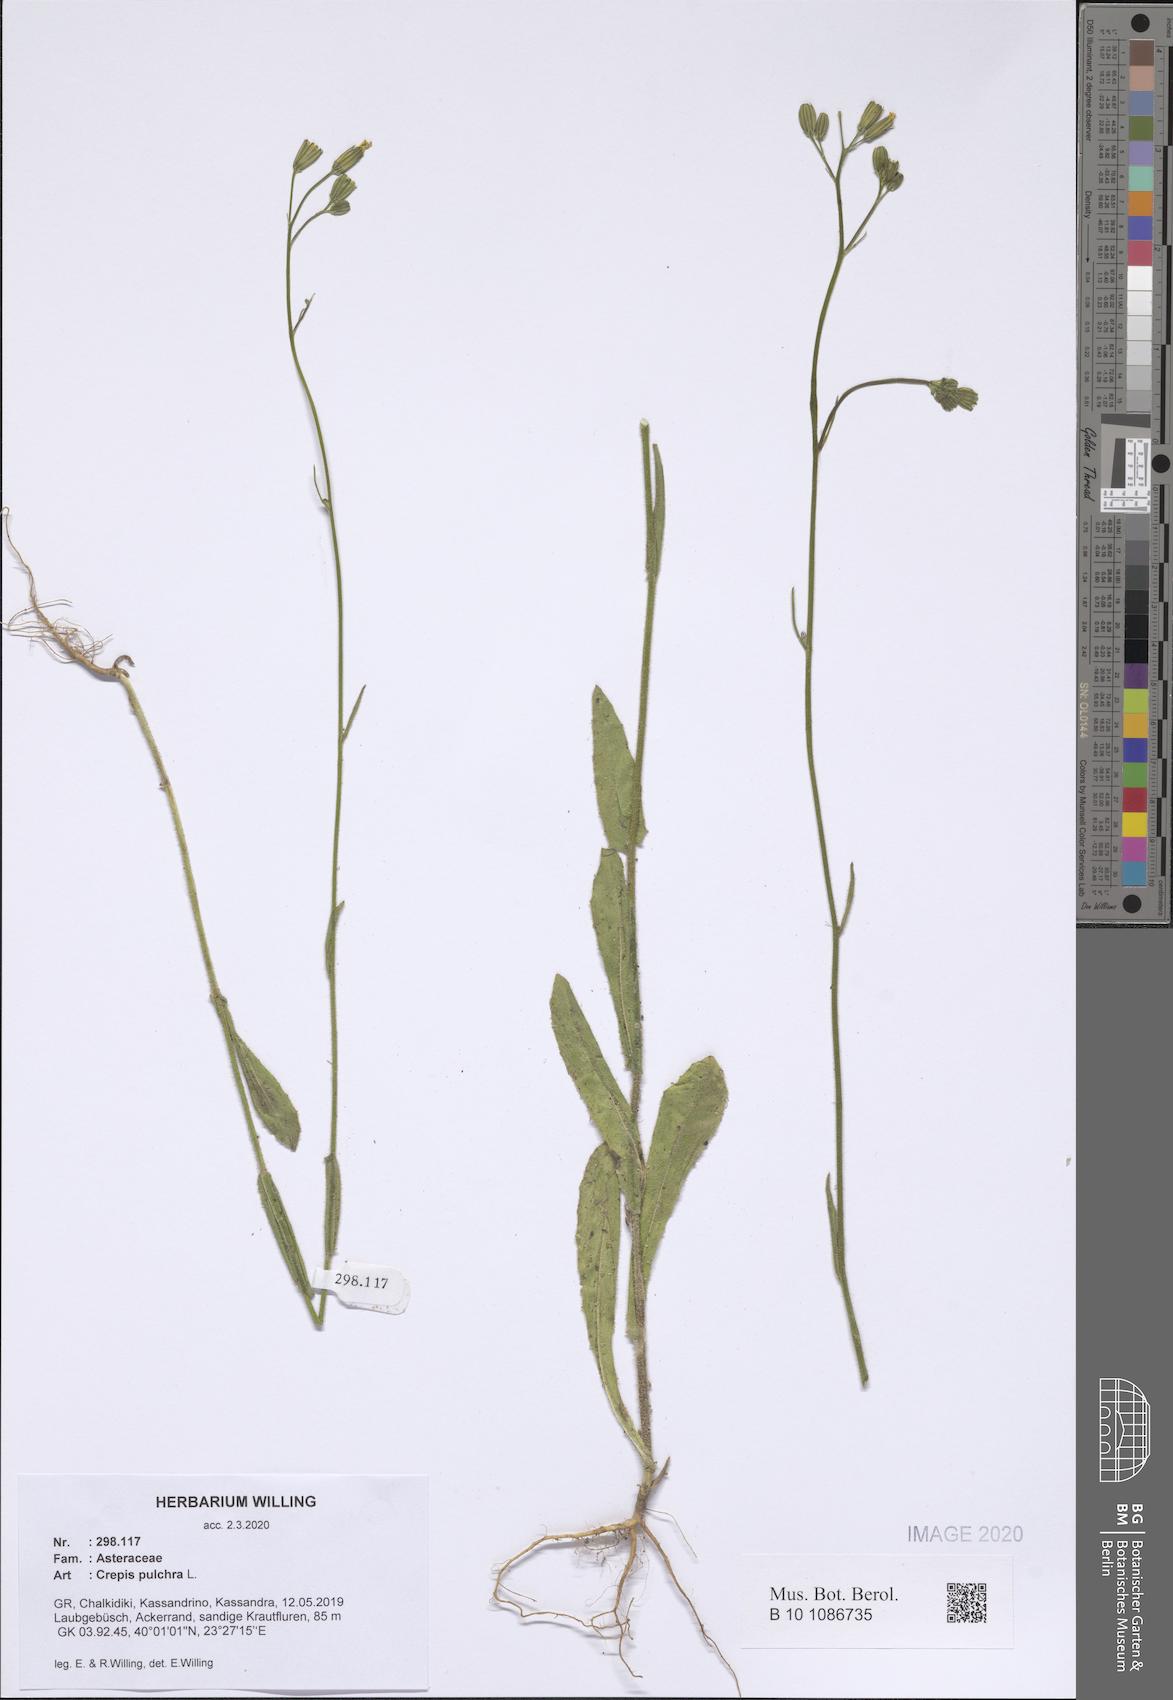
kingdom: Plantae
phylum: Tracheophyta
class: Magnoliopsida
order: Asterales
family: Asteraceae
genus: Crepis
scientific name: Crepis pulchra
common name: Hawk's-beard
